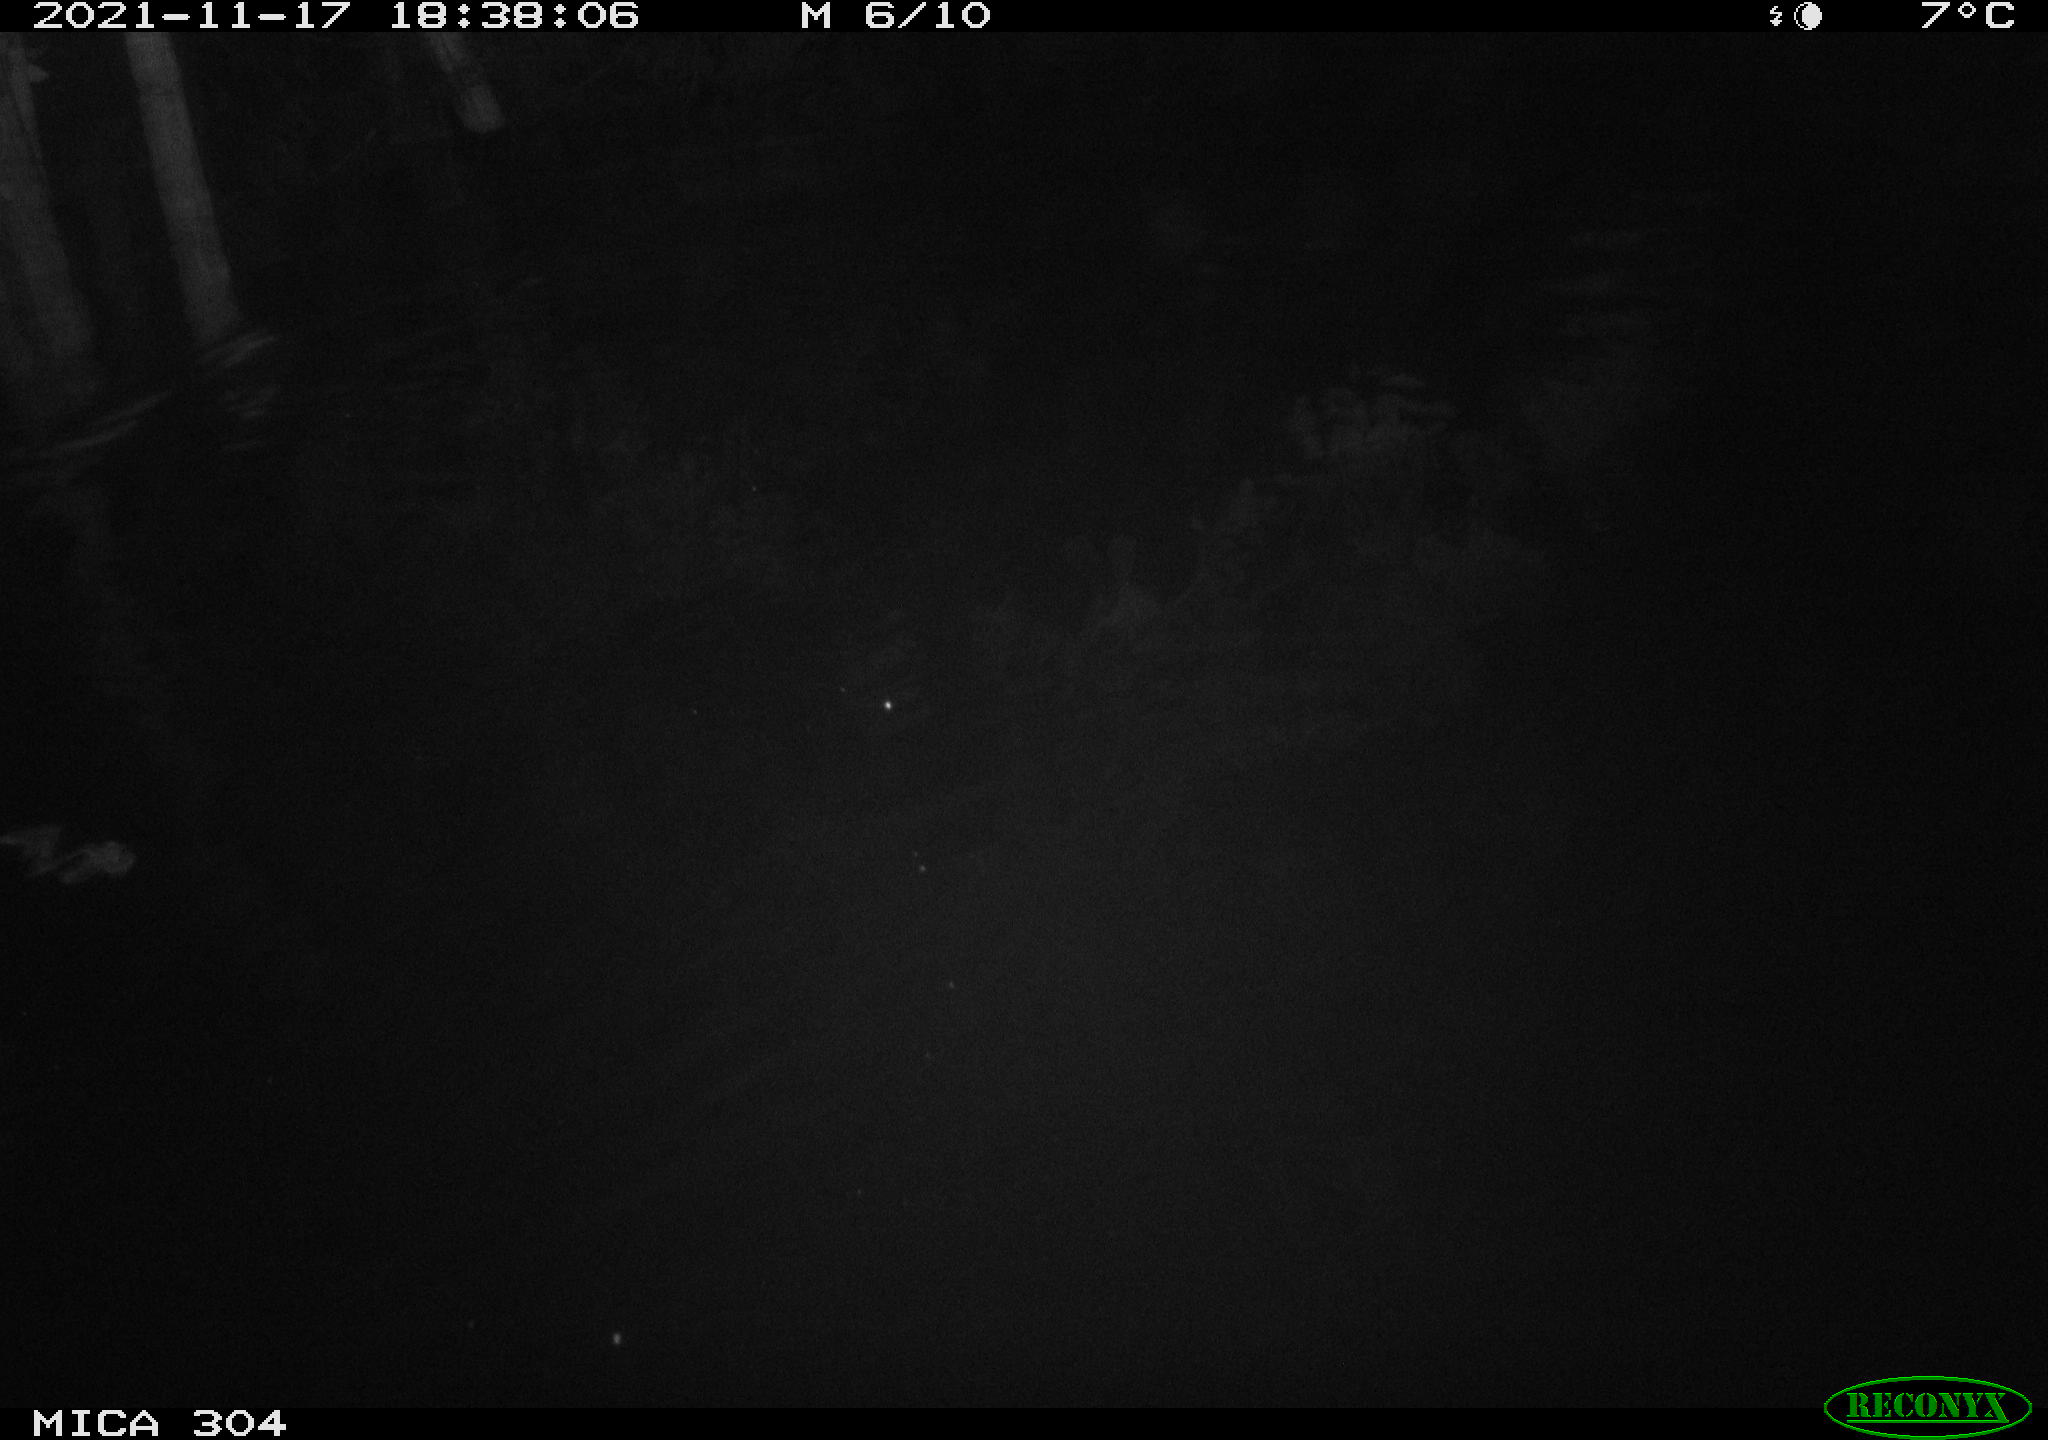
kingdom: Animalia
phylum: Chordata
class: Mammalia
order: Rodentia
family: Muridae
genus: Rattus
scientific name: Rattus norvegicus
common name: Brown rat
